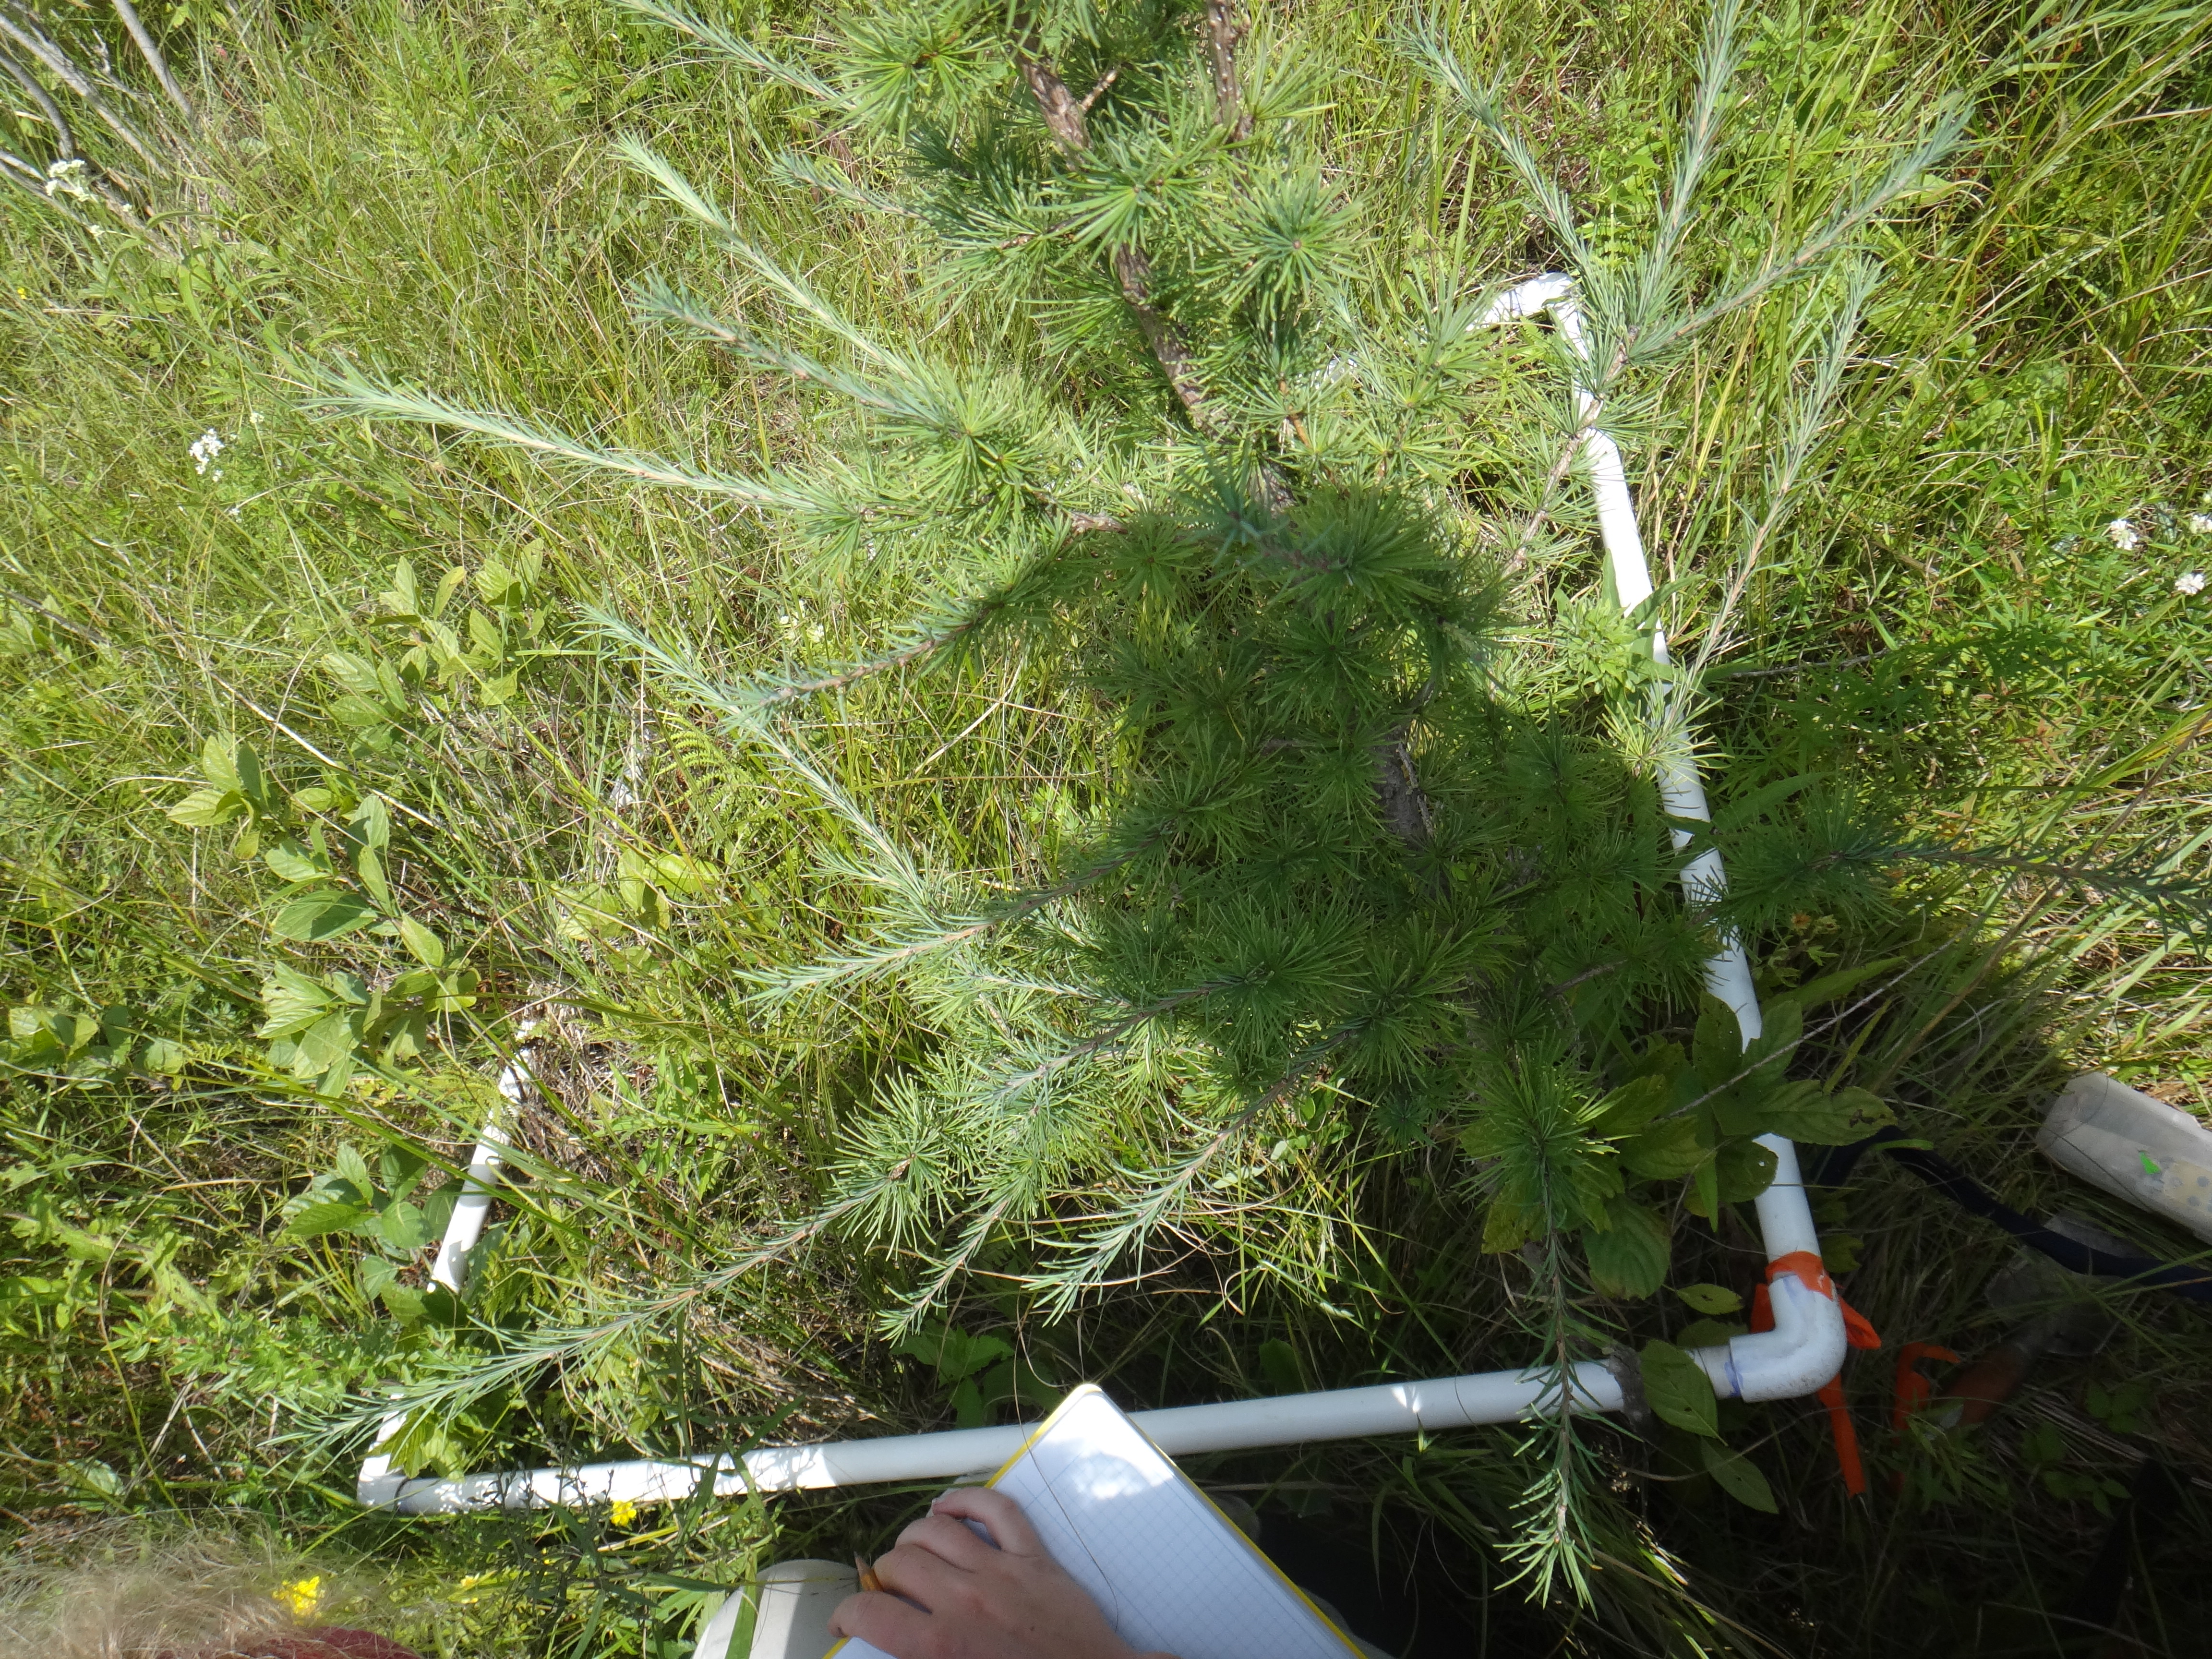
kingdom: Plantae
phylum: Tracheophyta
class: Magnoliopsida
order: Asterales
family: Asteraceae
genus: Solidago
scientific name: Solidago uliginosa
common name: Bog goldenrod
